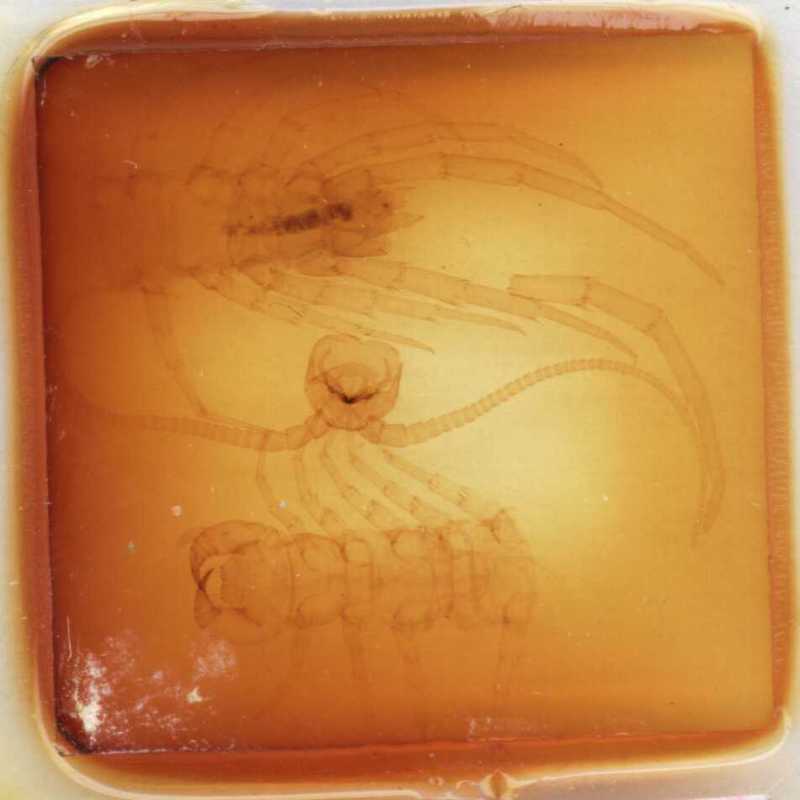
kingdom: Animalia
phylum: Arthropoda
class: Chilopoda
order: Lithobiomorpha
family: Lithobiidae
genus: Lithobius
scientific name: Lithobius parietum
